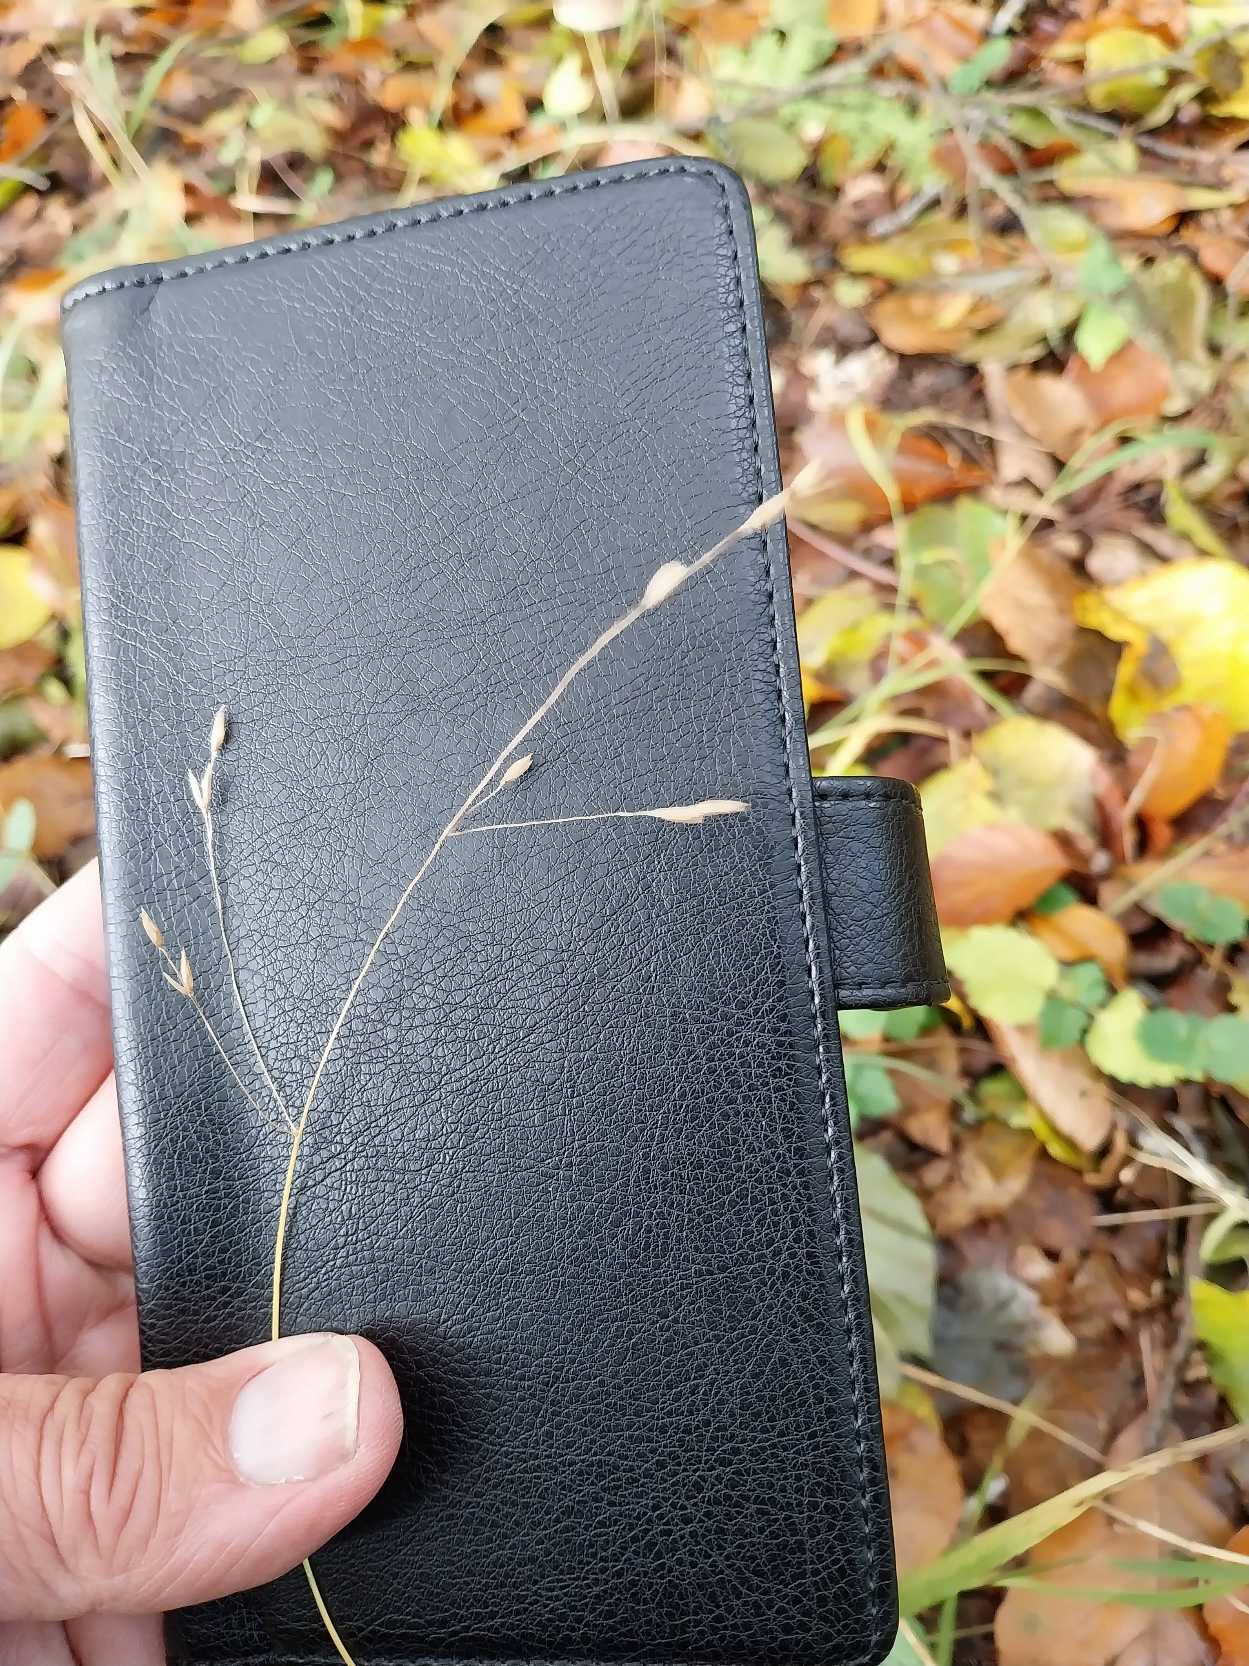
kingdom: Plantae
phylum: Tracheophyta
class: Liliopsida
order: Poales
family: Poaceae
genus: Melica
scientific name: Melica uniflora
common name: Enblomstret flitteraks
